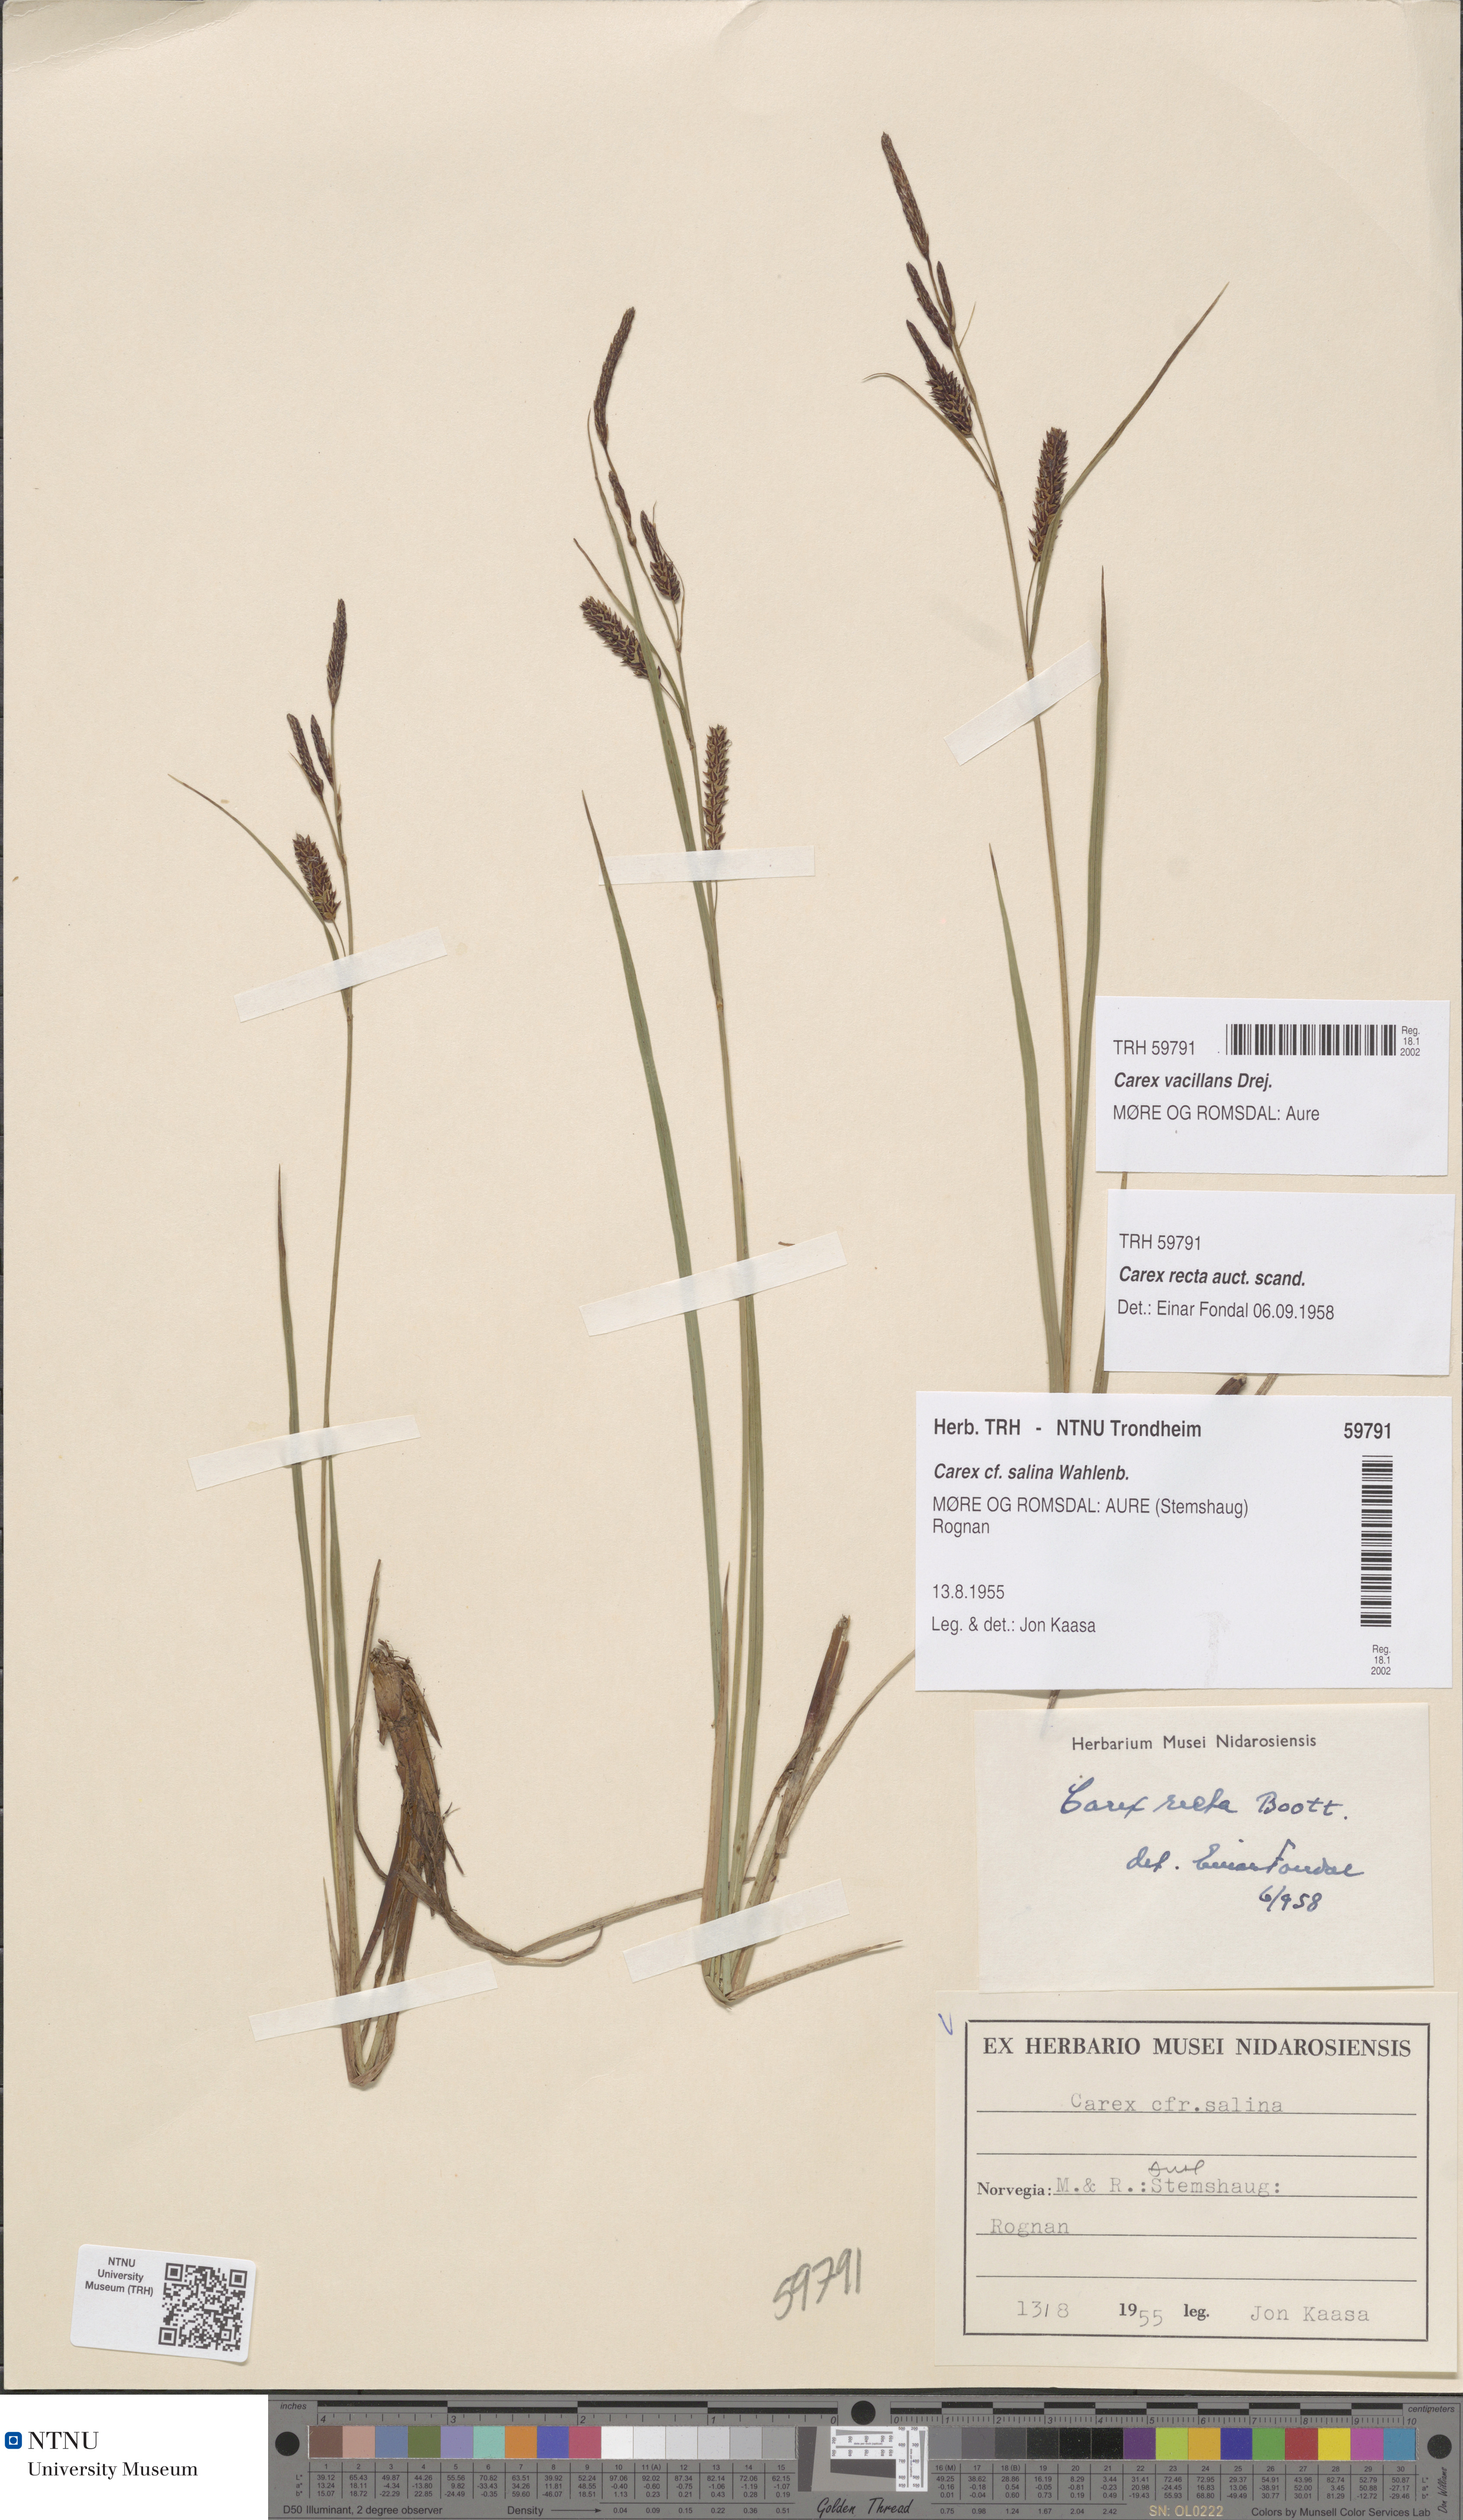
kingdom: Plantae
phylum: Tracheophyta
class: Liliopsida
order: Poales
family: Cyperaceae
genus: Carex
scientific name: Carex vacillans
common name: Sedge
